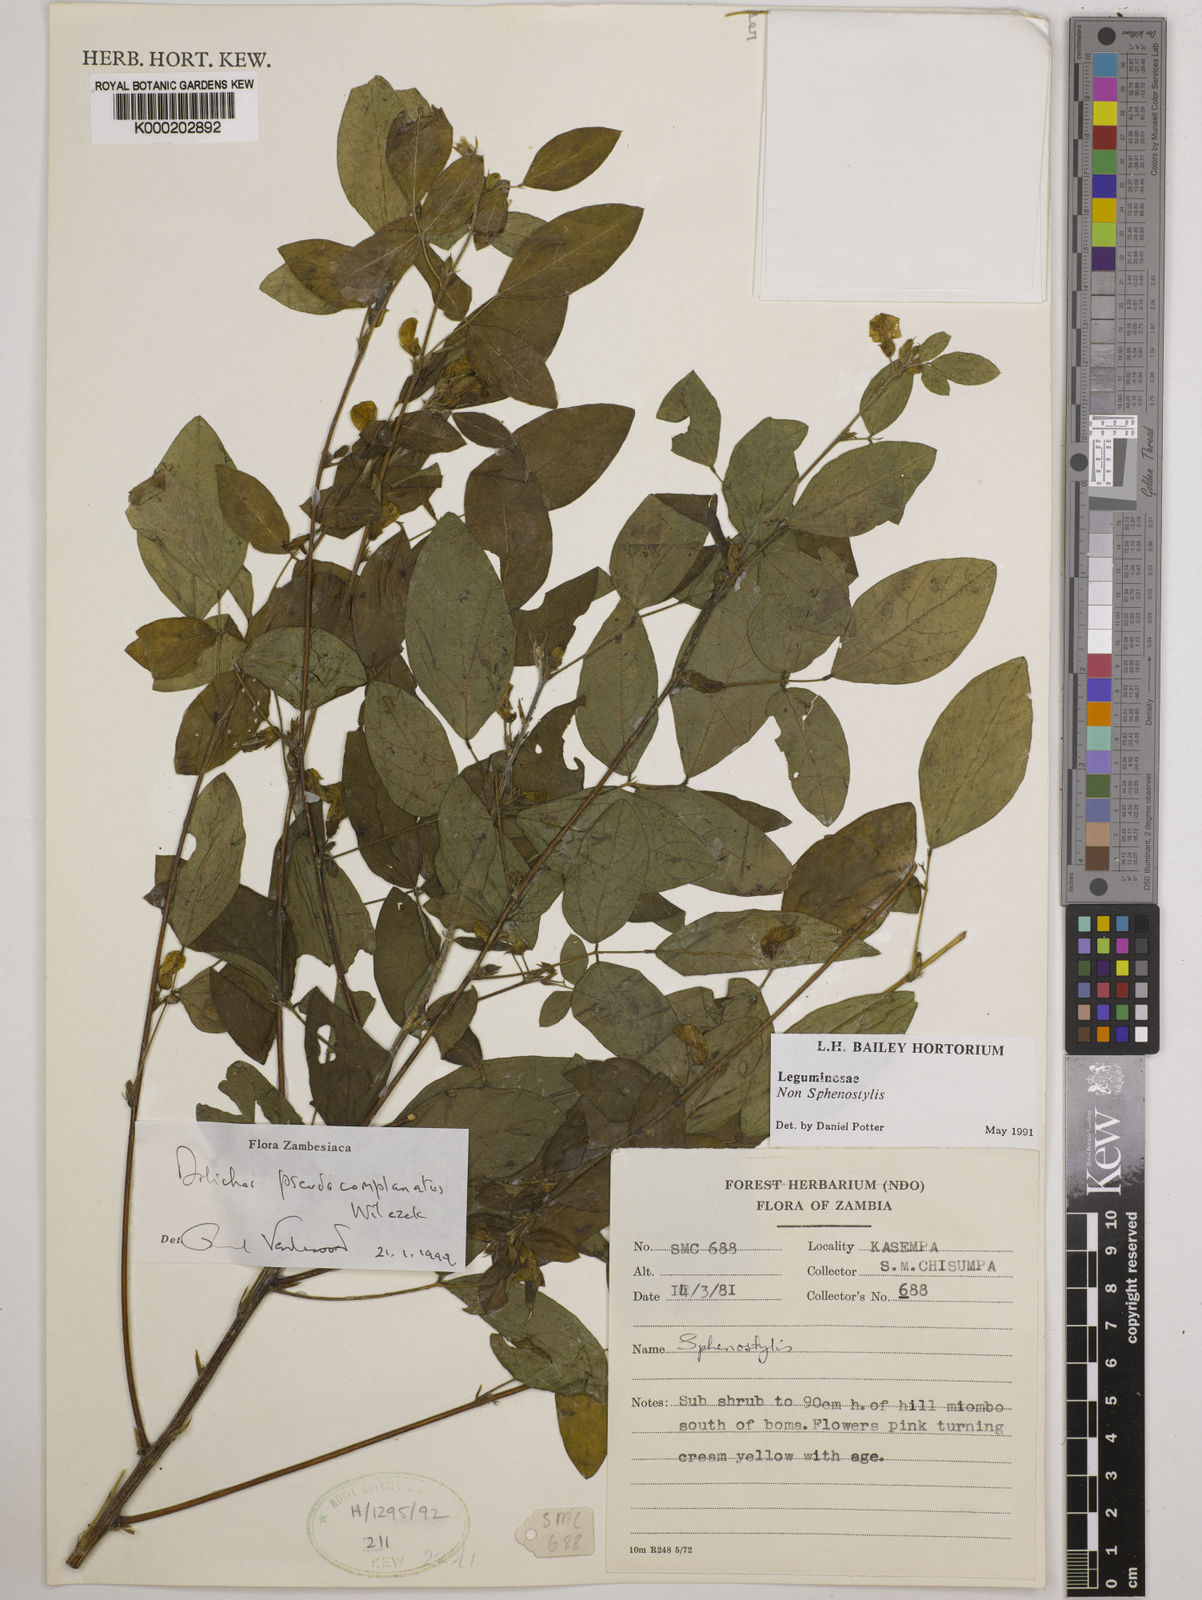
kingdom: Plantae
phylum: Tracheophyta
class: Magnoliopsida
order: Fabales
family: Fabaceae
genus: Dolichos
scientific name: Dolichos
